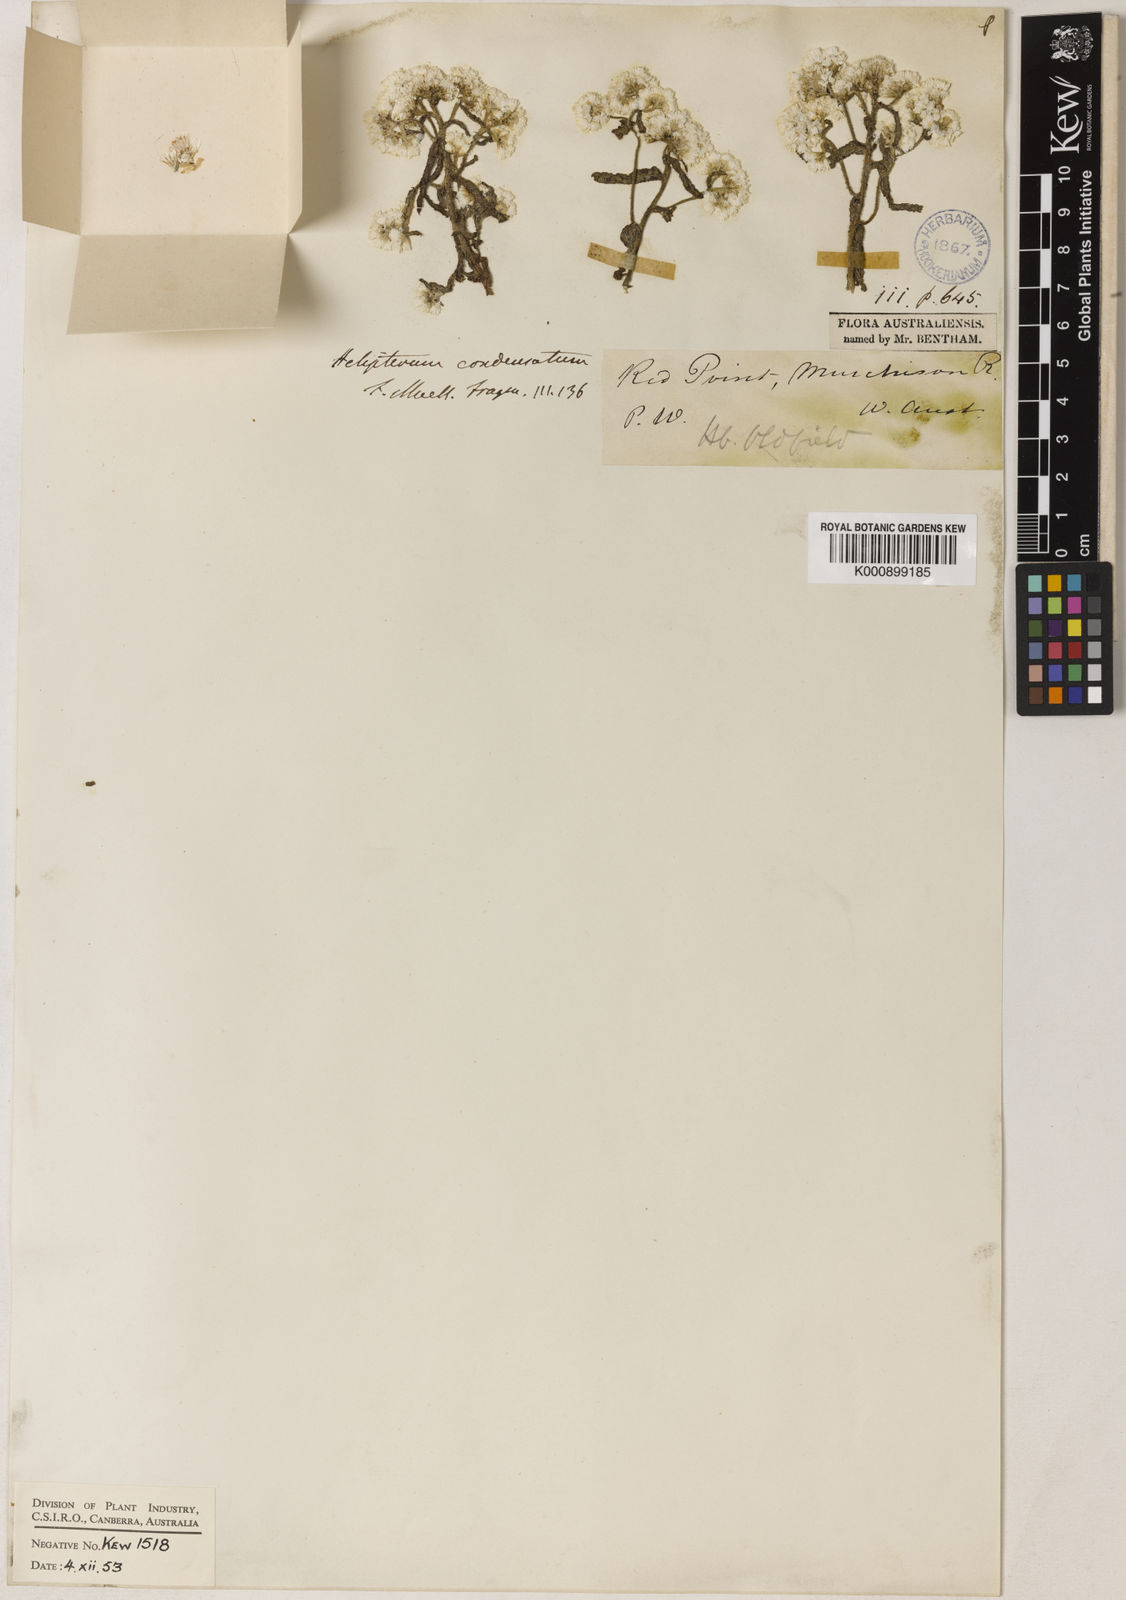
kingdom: Plantae
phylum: Tracheophyta
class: Magnoliopsida
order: Asterales
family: Asteraceae
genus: Rhodanthe
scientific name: Rhodanthe condensata
